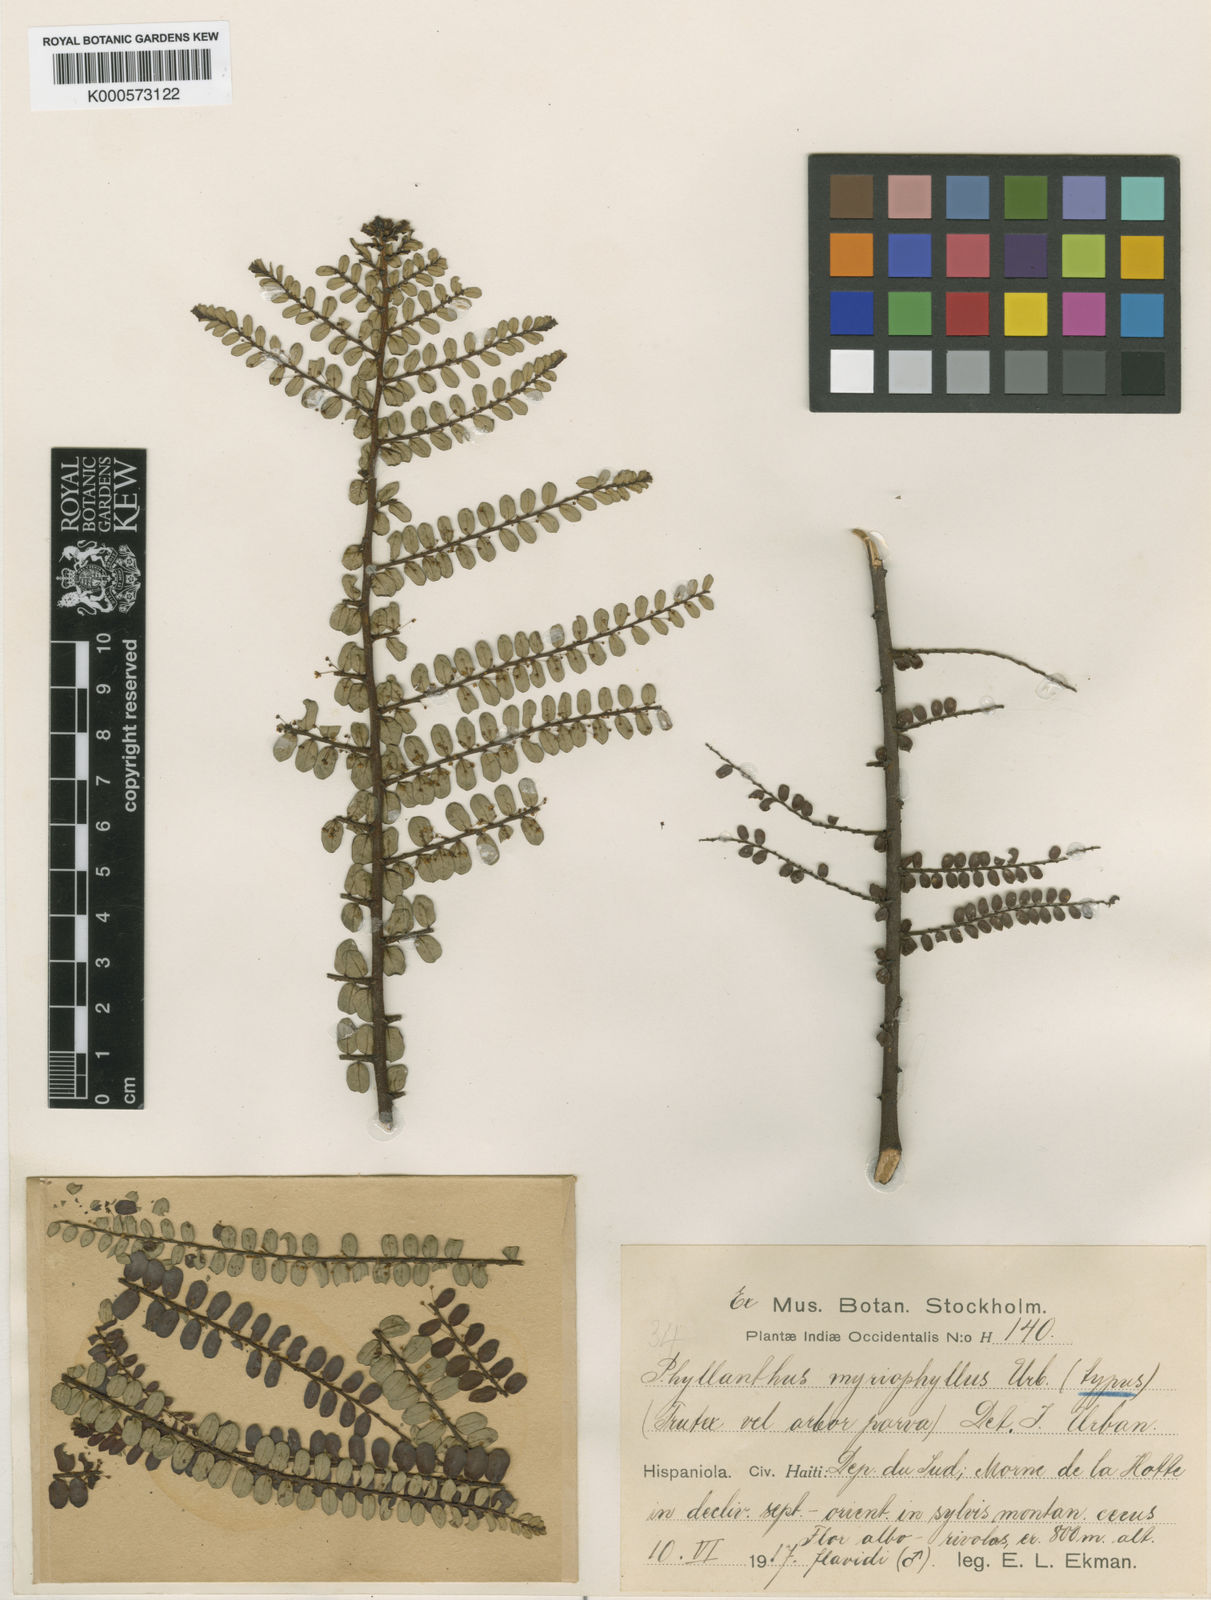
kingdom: Plantae
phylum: Tracheophyta
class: Magnoliopsida
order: Malpighiales
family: Phyllanthaceae
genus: Phyllanthus
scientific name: Phyllanthus myriophyllus
